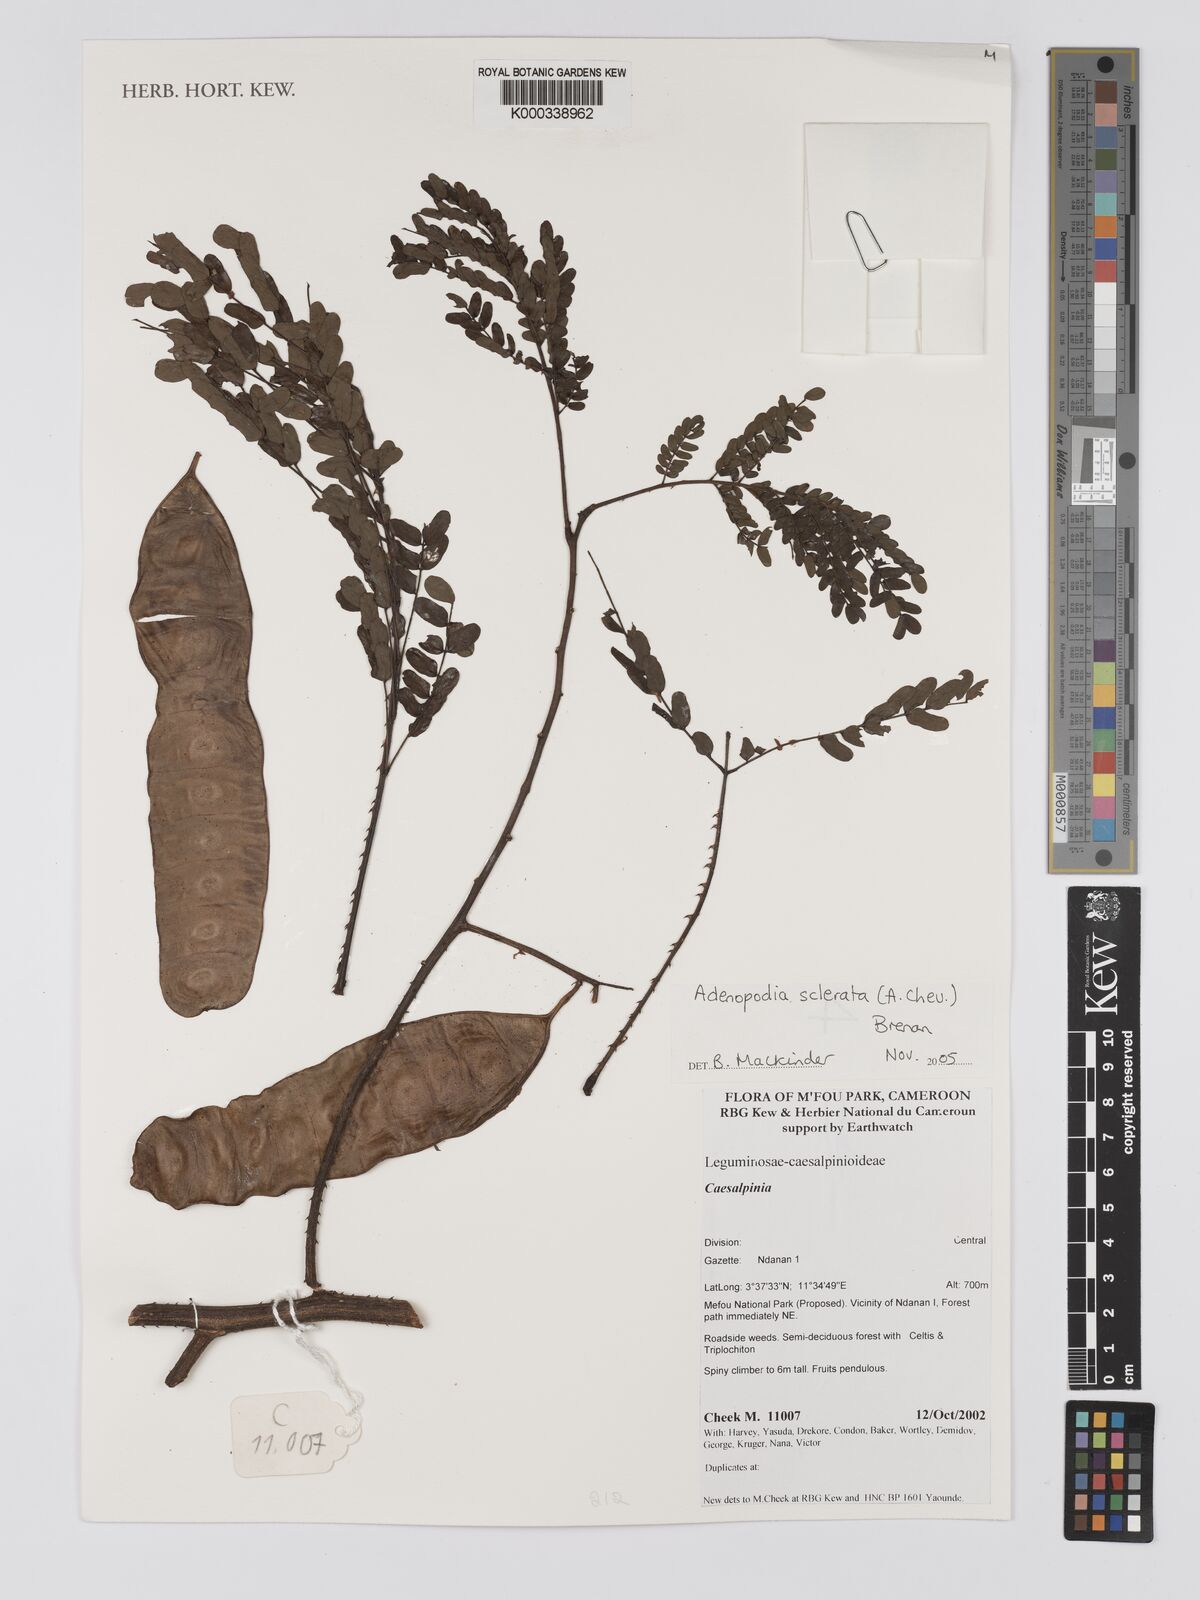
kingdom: Plantae
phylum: Tracheophyta
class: Magnoliopsida
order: Fabales
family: Fabaceae
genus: Adenopodia
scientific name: Adenopodia scelerata
